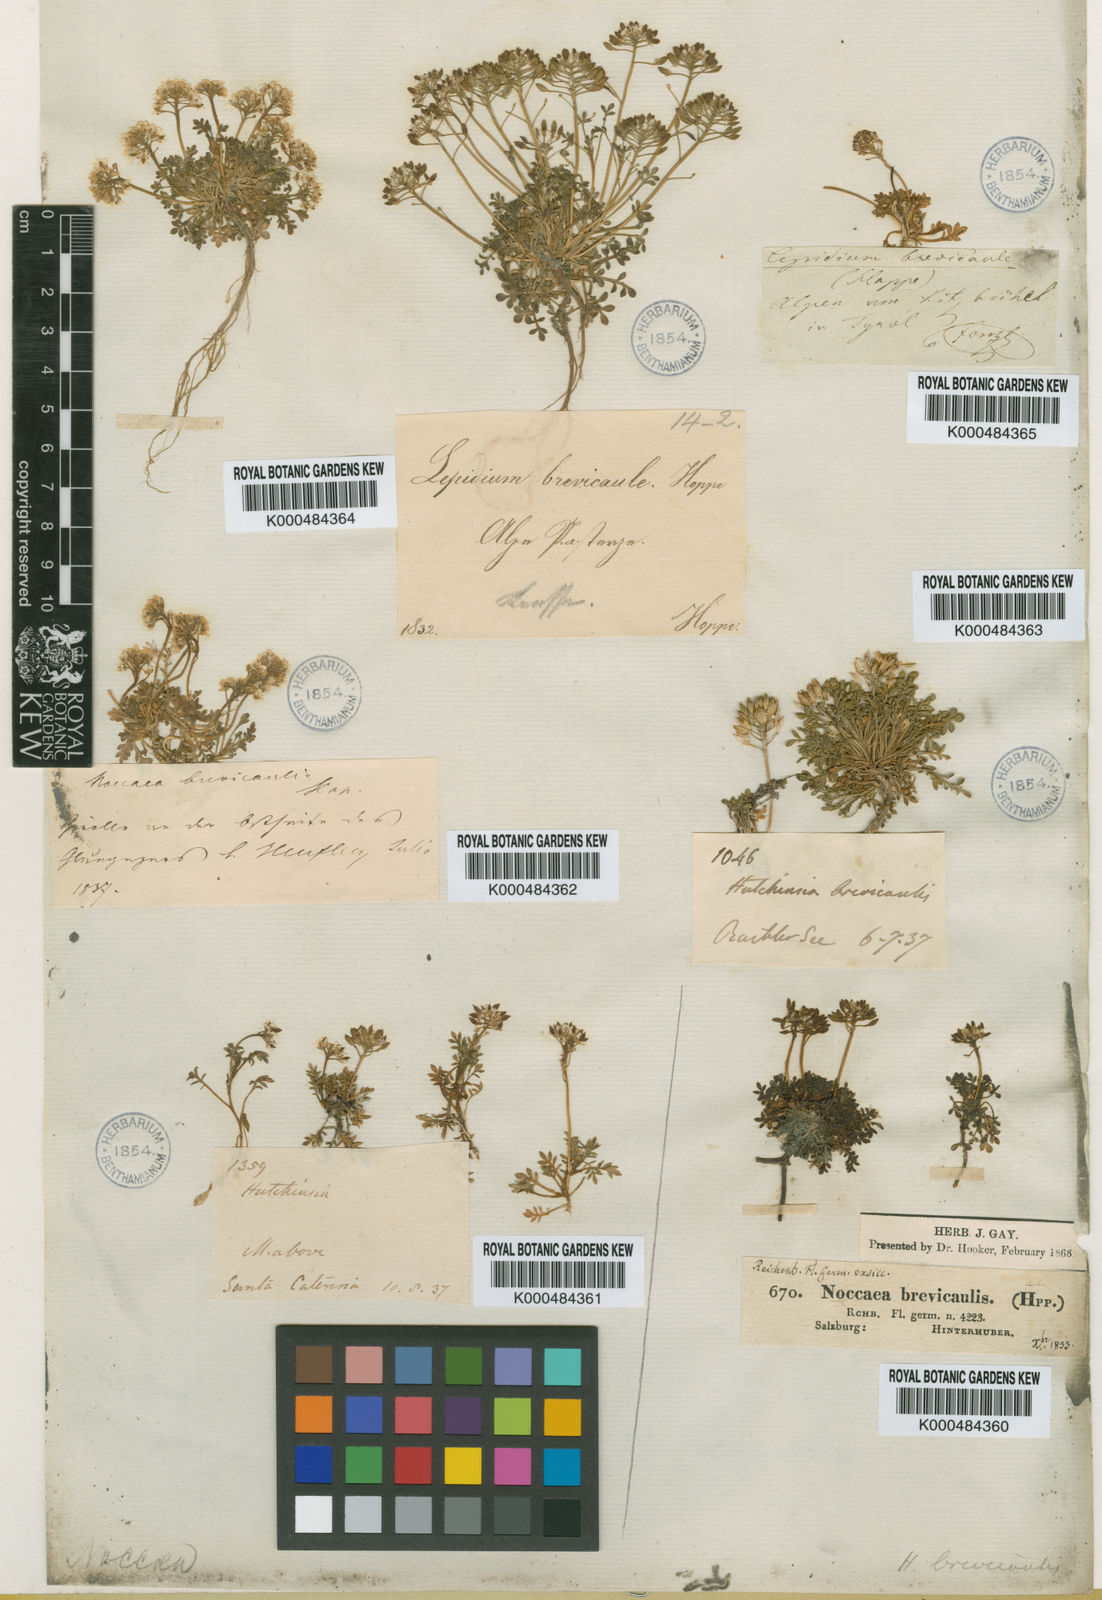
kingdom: Plantae
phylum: Tracheophyta
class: Magnoliopsida
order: Brassicales
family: Brassicaceae
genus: Hornungia
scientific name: Hornungia alpina
